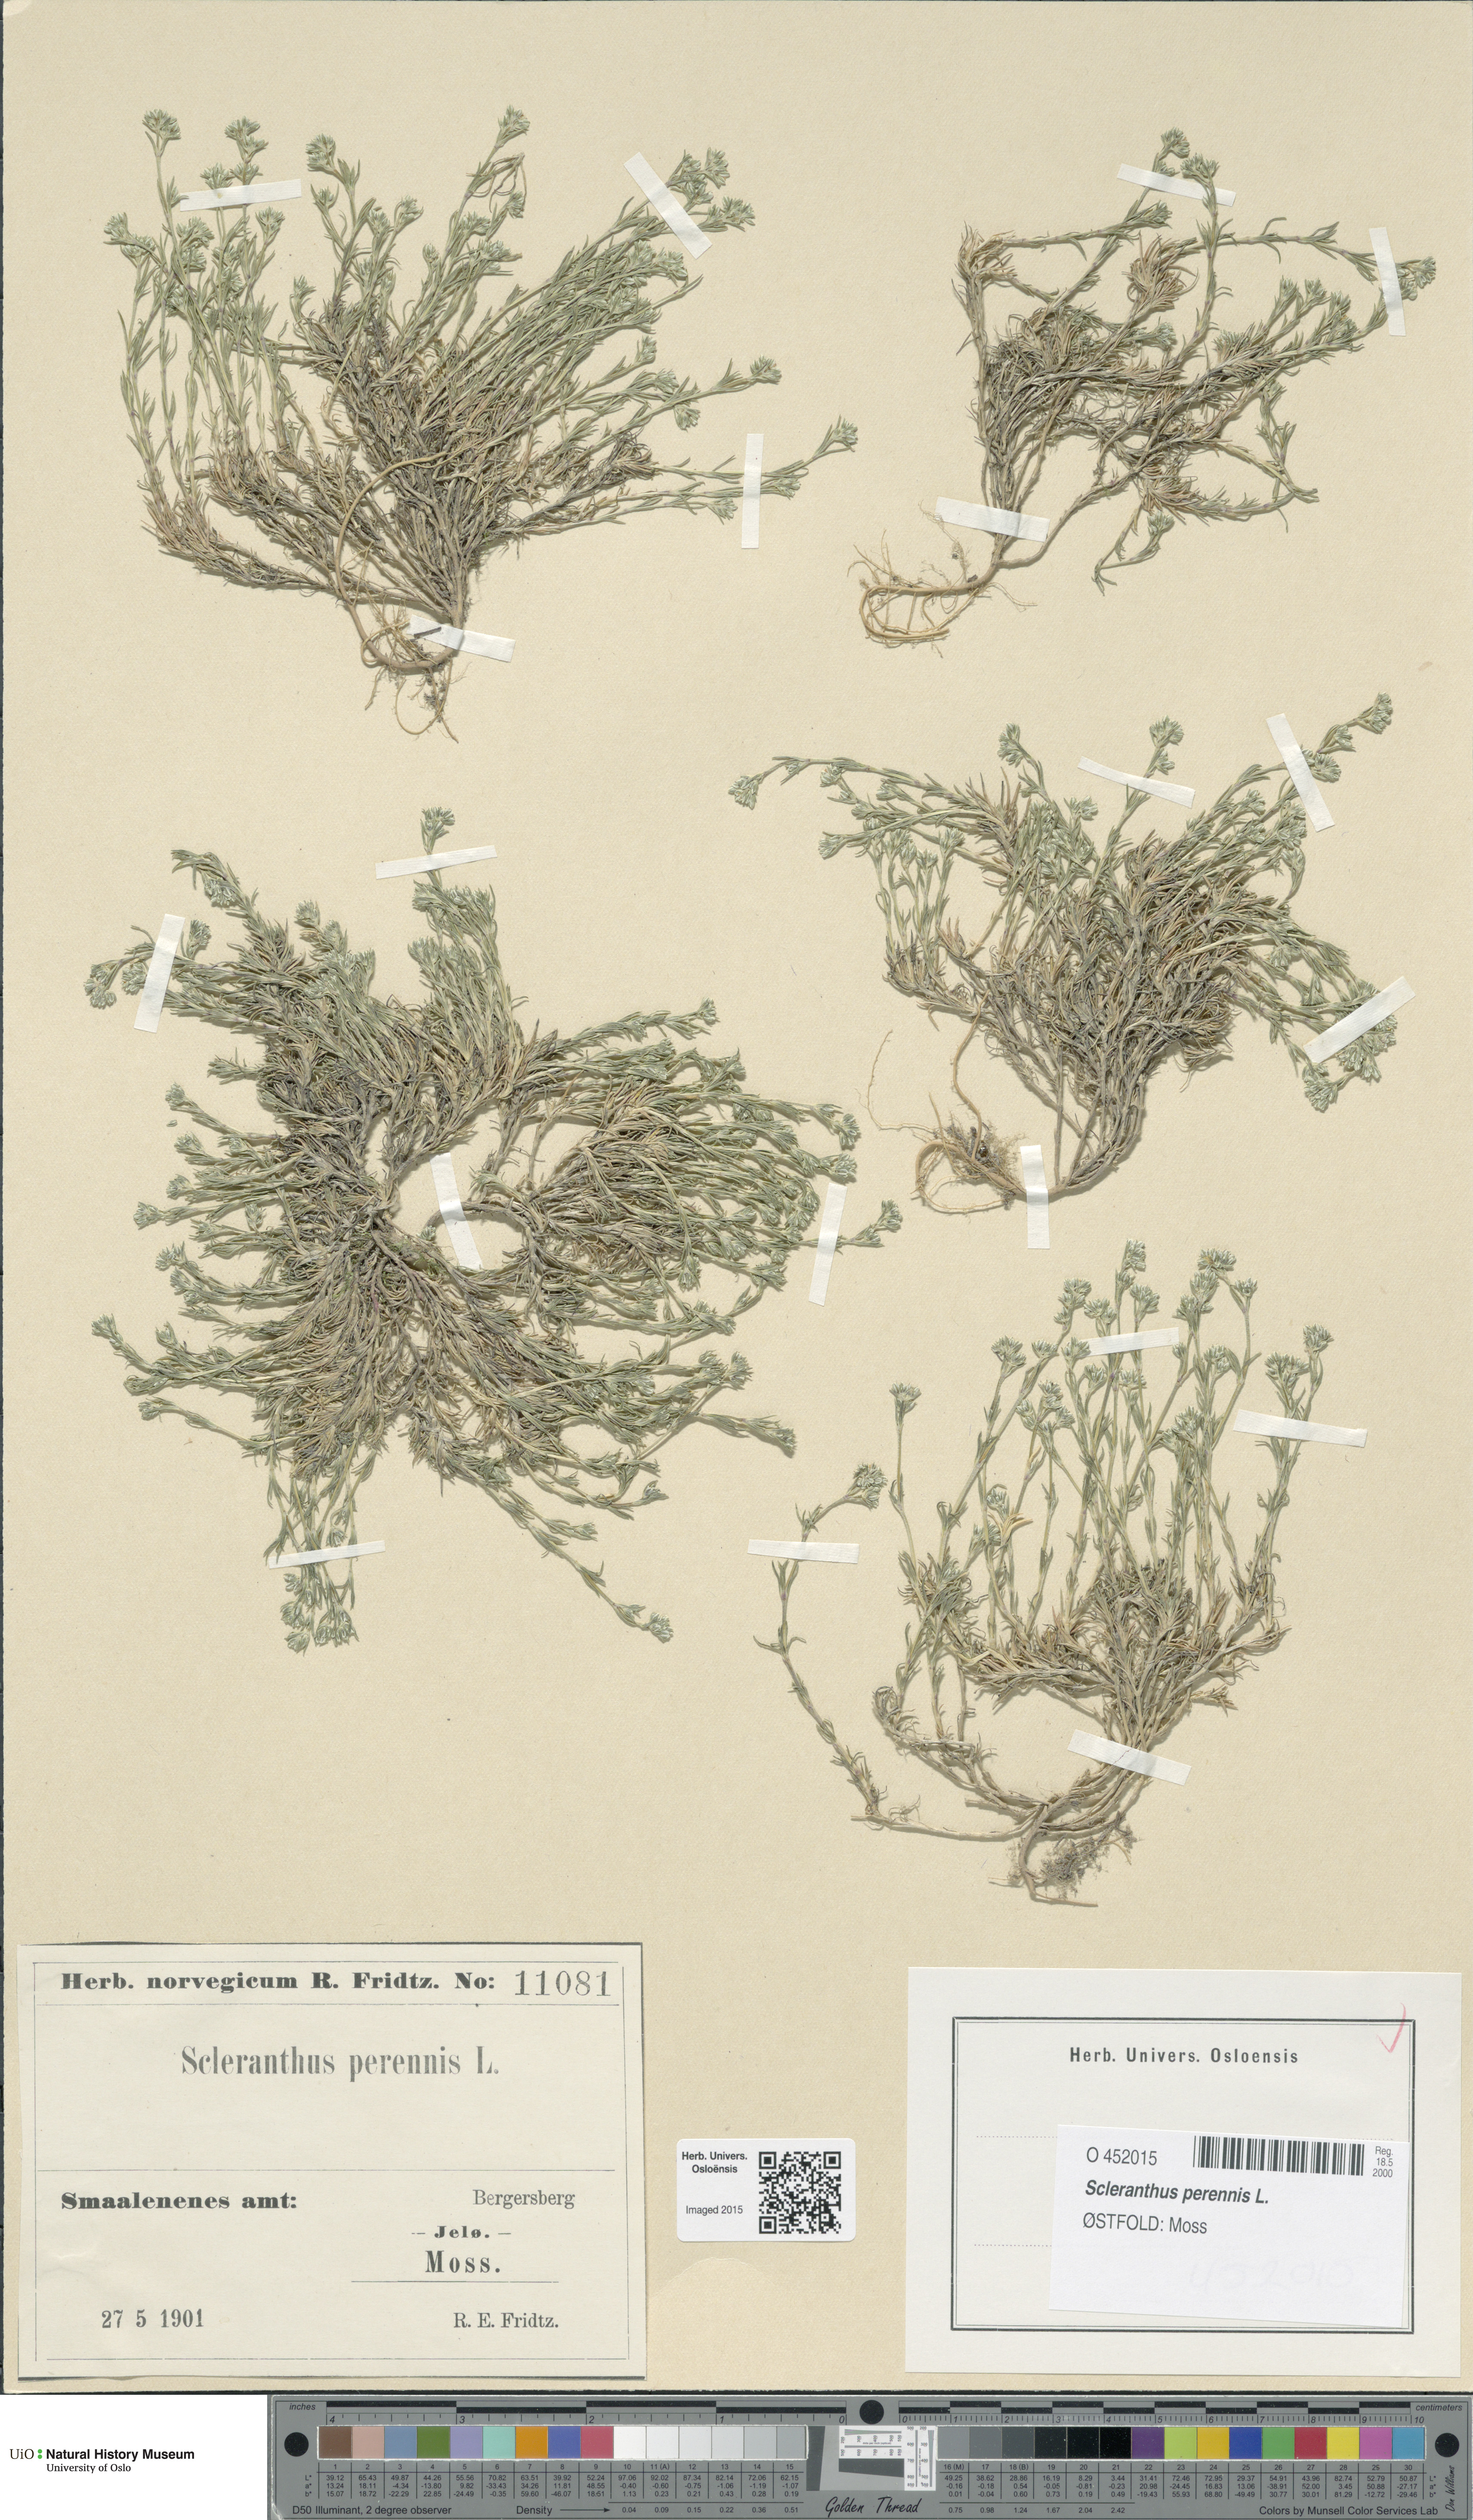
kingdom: Plantae
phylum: Tracheophyta
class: Magnoliopsida
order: Caryophyllales
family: Caryophyllaceae
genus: Scleranthus
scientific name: Scleranthus perennis
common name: Perennial knawel
